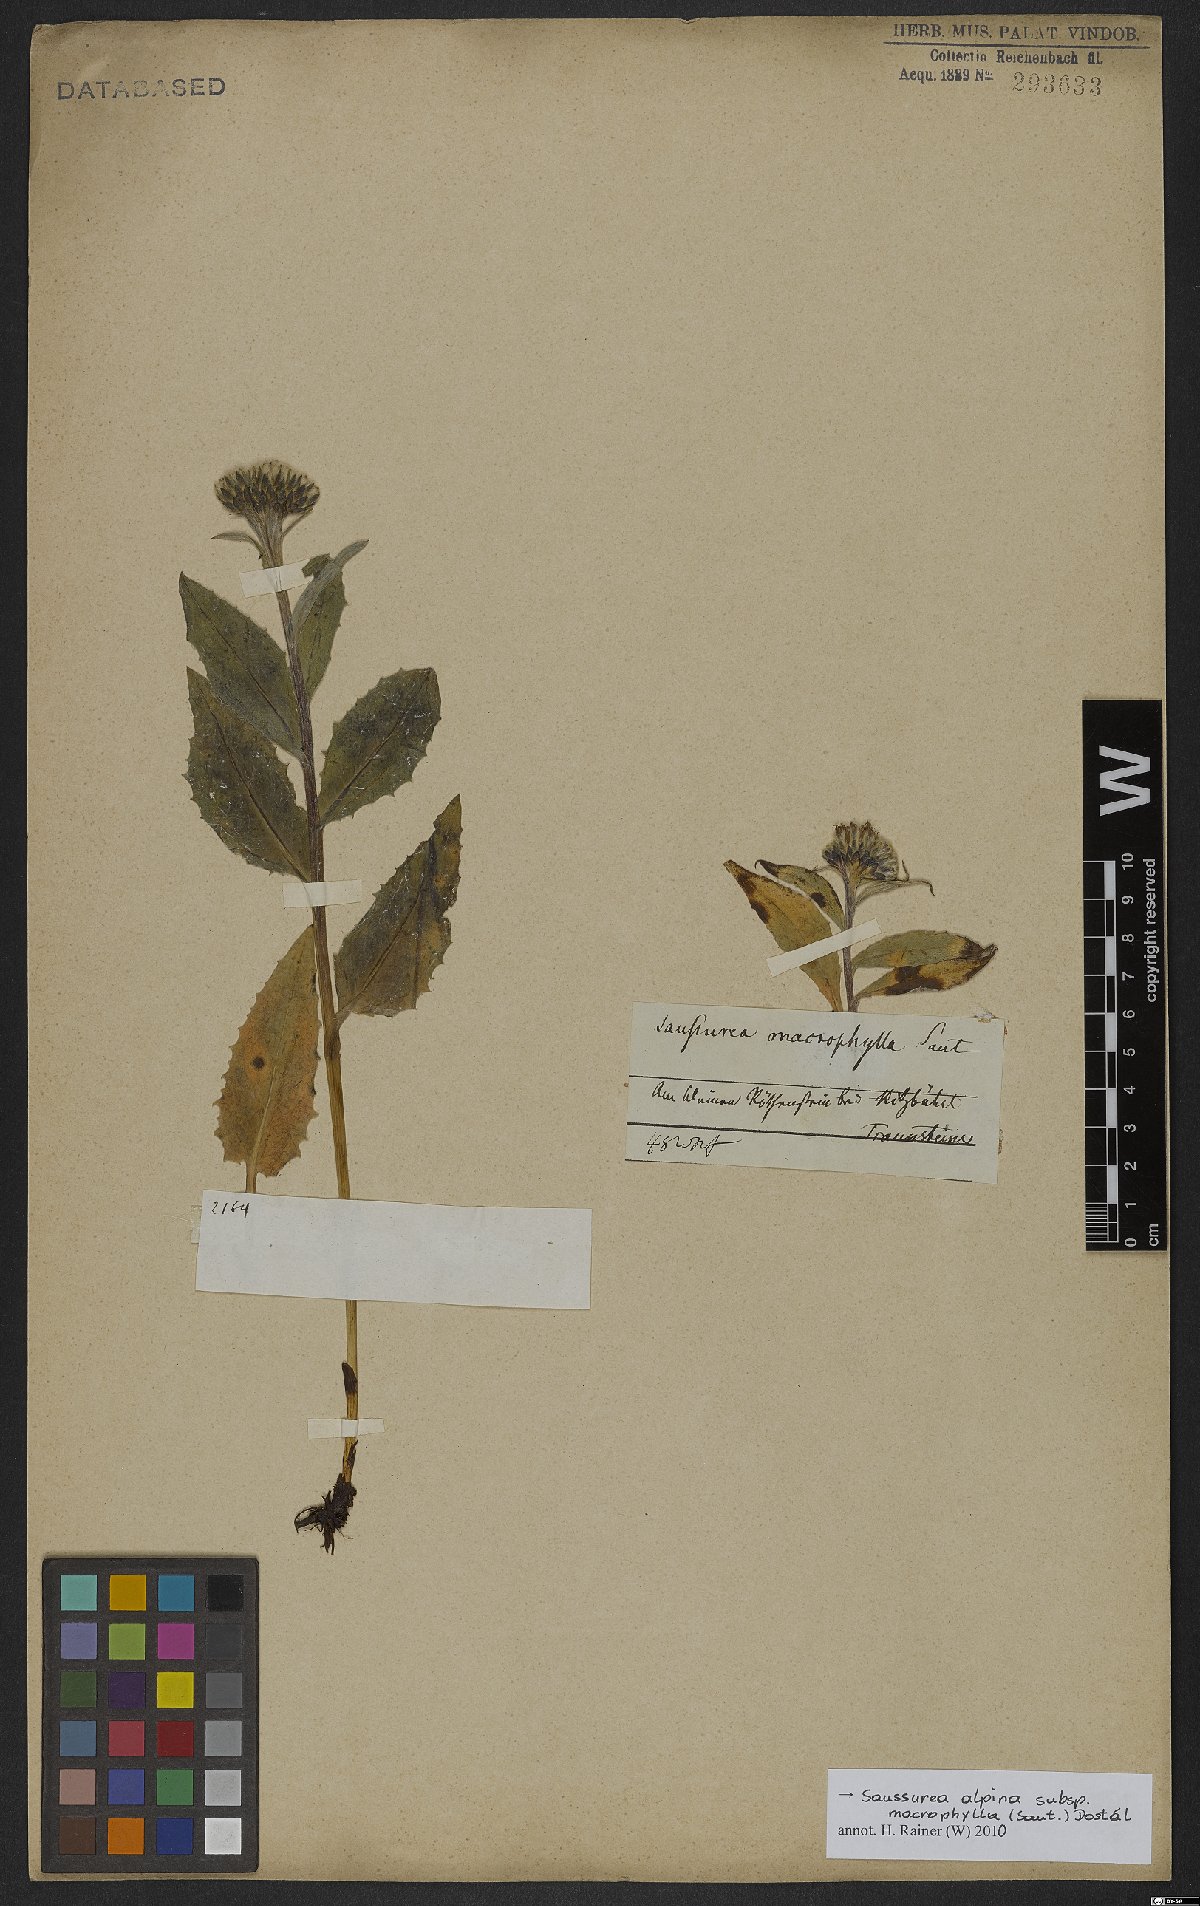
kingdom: Plantae
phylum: Tracheophyta
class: Magnoliopsida
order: Asterales
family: Asteraceae
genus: Saussurea
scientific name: Saussurea alpina
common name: Alpine saw-wort
